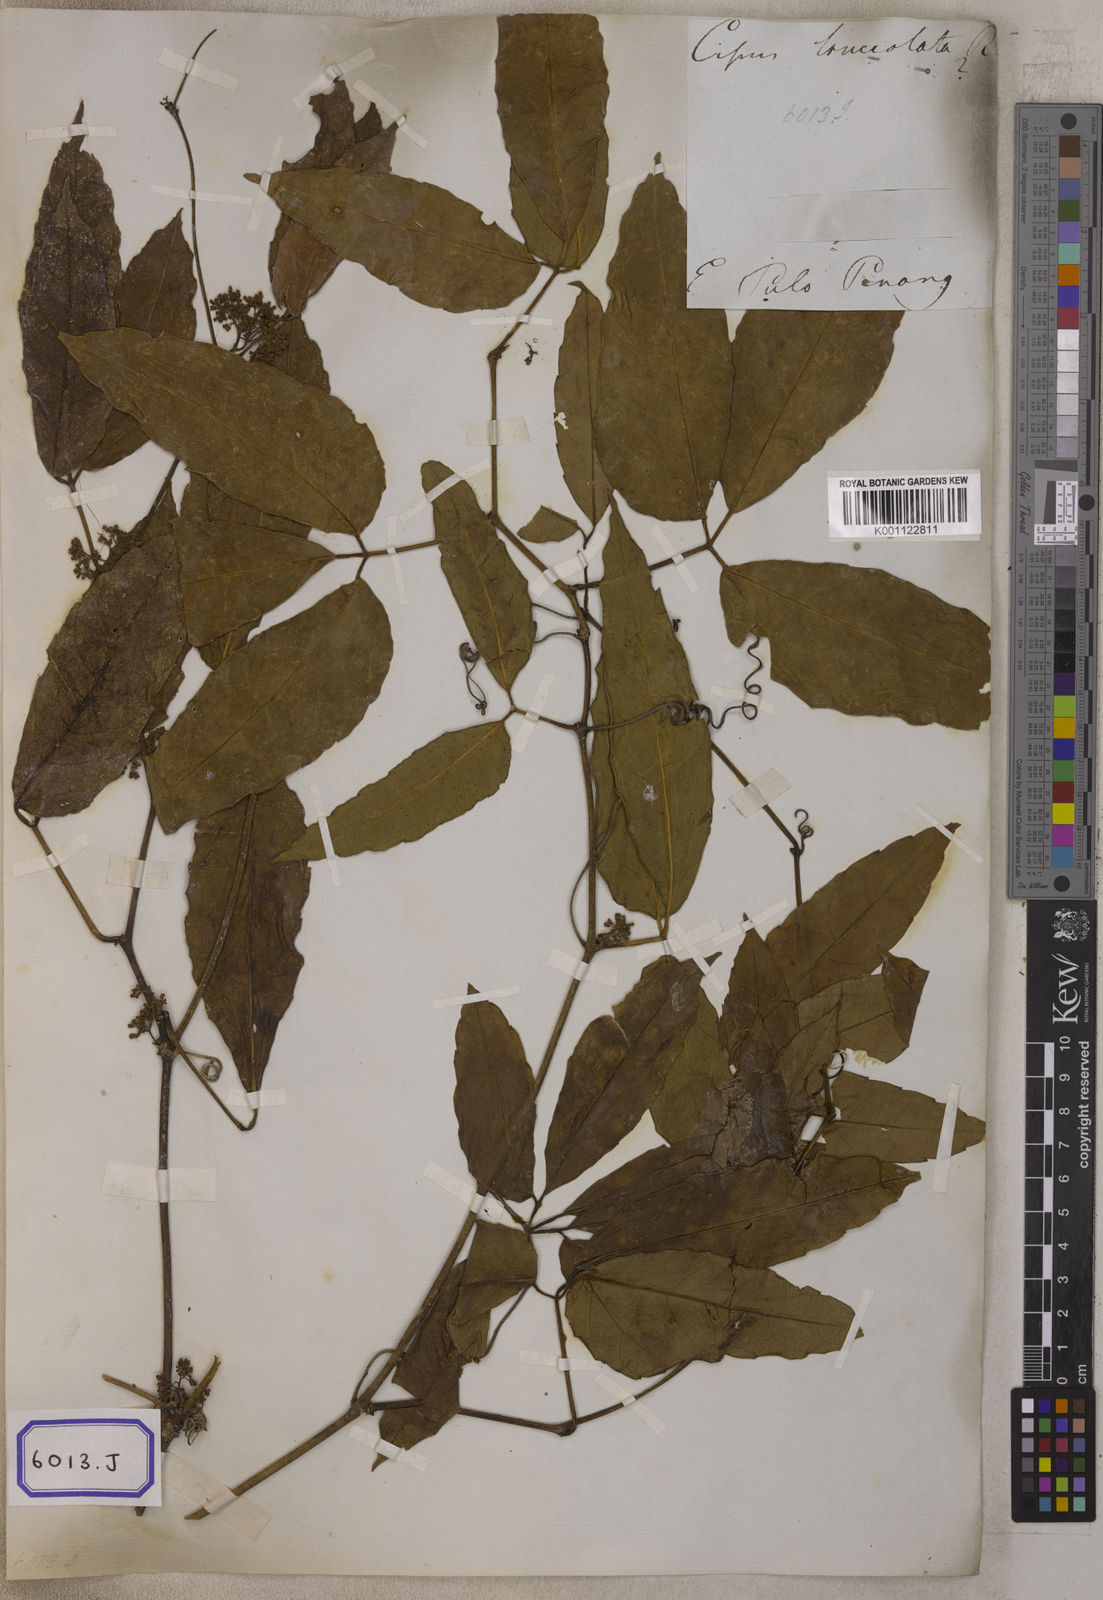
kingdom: Plantae
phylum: Tracheophyta
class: Magnoliopsida
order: Vitales
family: Vitaceae
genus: Vitis
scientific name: Vitis
